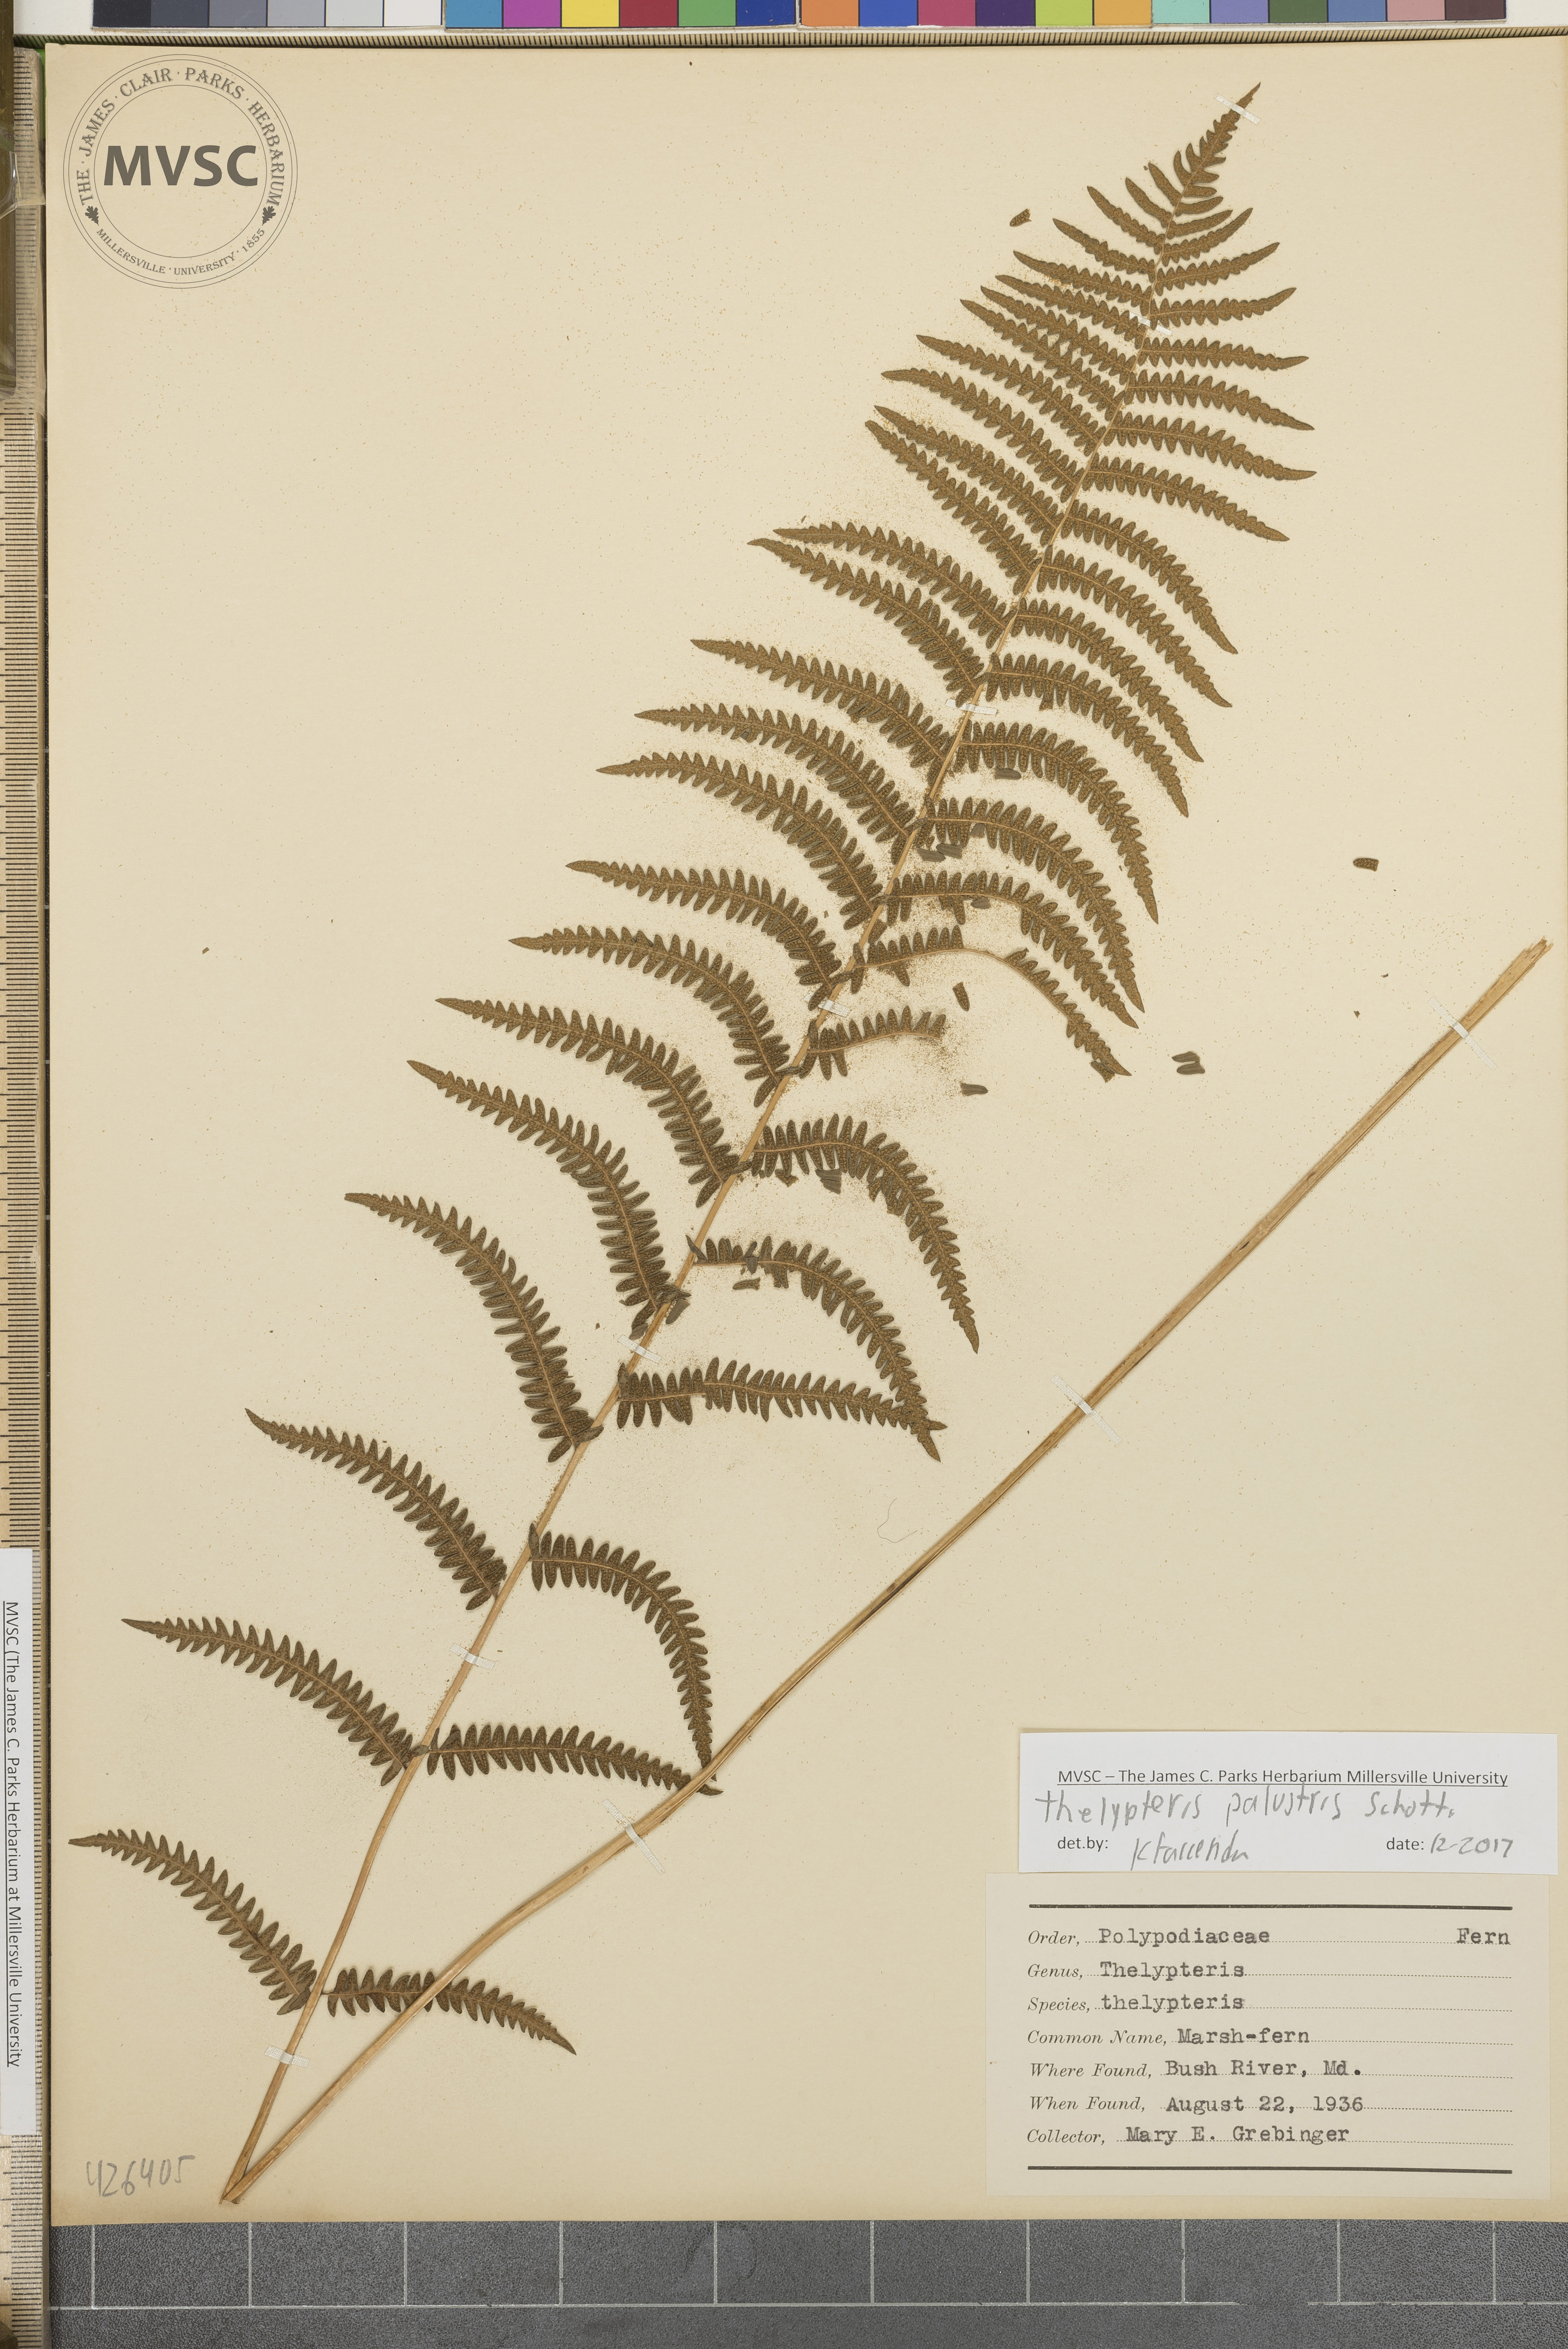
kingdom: Plantae
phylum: Tracheophyta
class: Polypodiopsida
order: Polypodiales
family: Thelypteridaceae
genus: Thelypteris
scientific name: Thelypteris palustris
